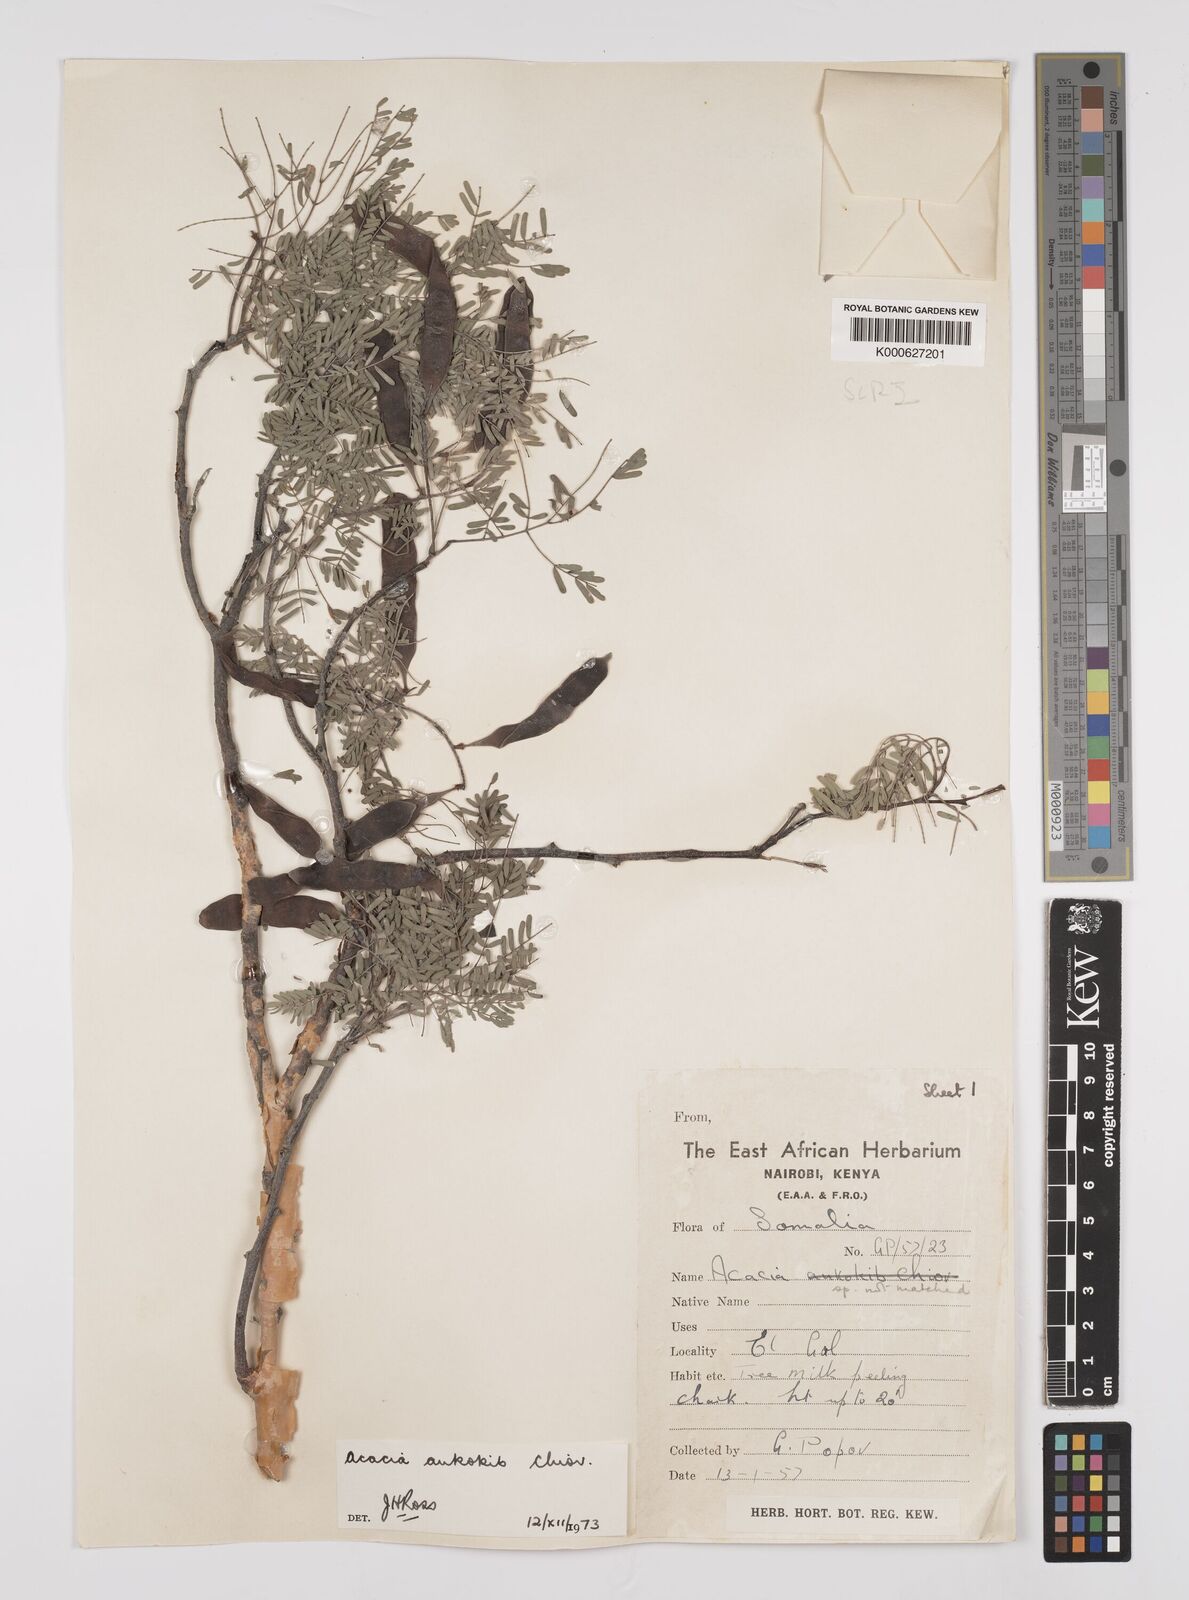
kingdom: Plantae
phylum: Tracheophyta
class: Magnoliopsida
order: Fabales
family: Fabaceae
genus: Senegalia
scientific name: Senegalia ankokib
